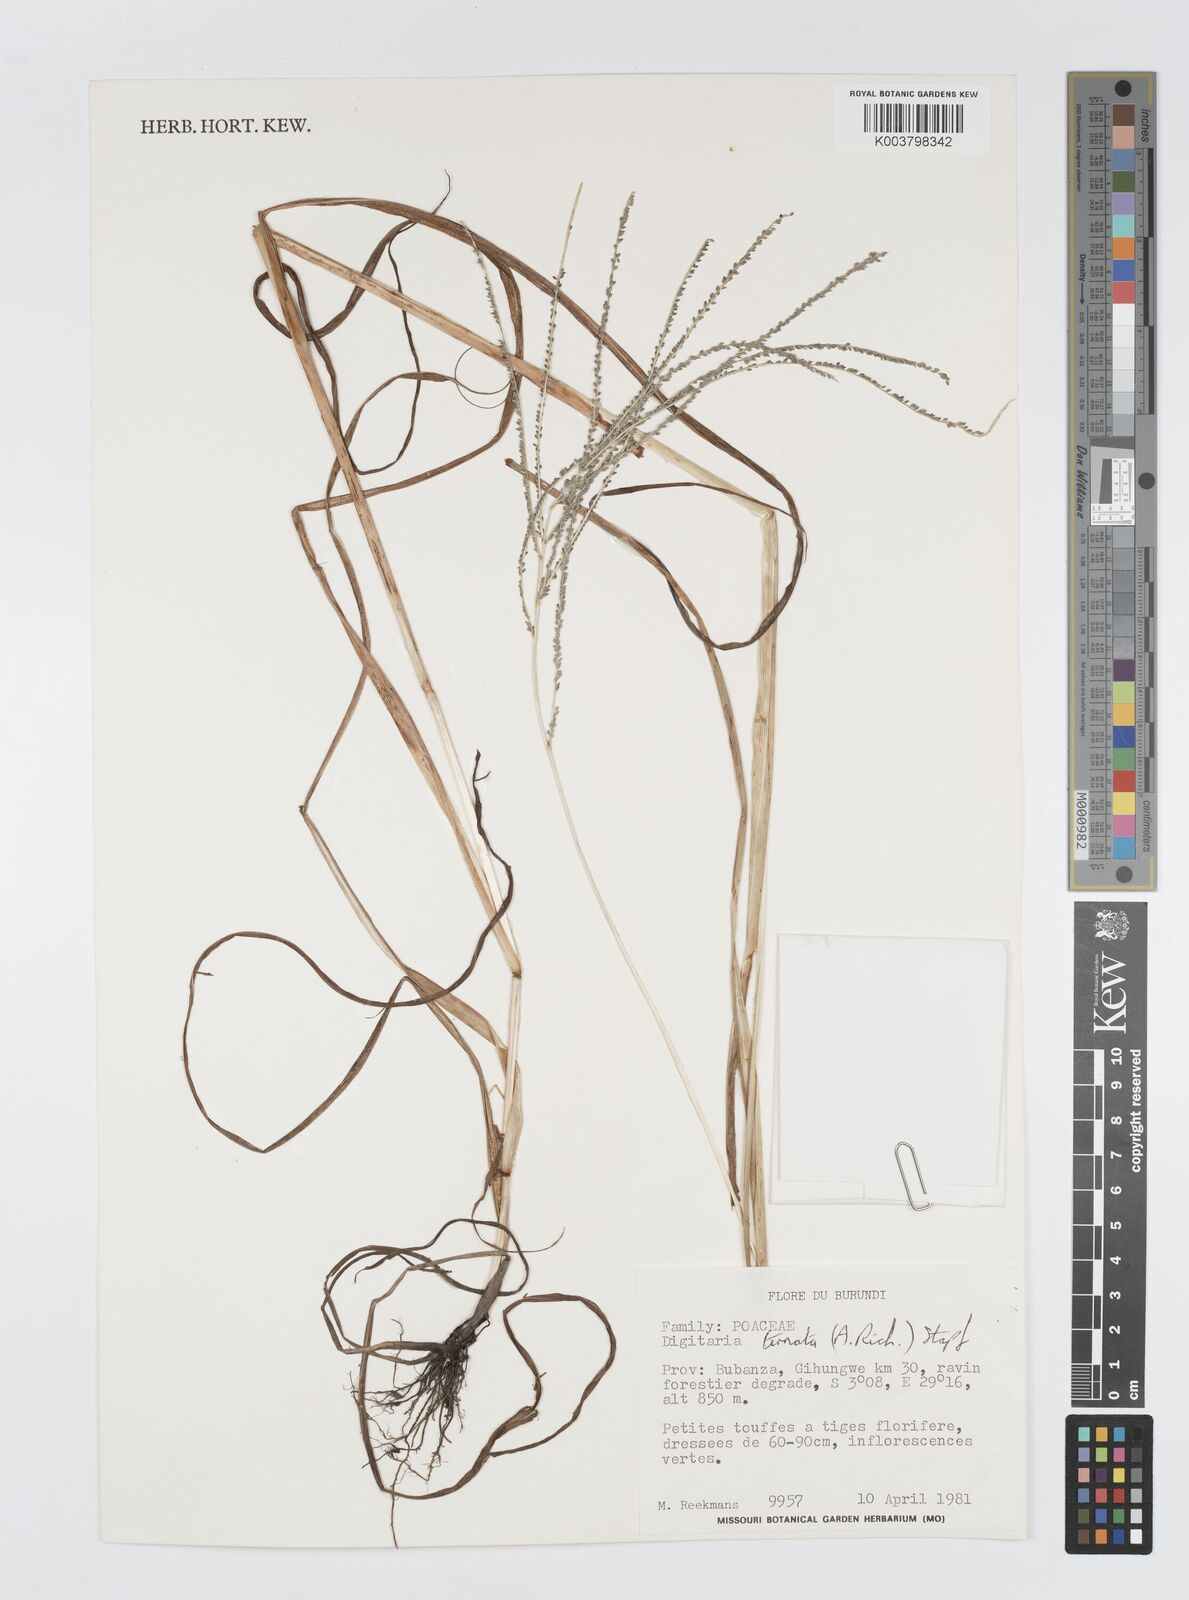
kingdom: Plantae
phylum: Tracheophyta
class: Liliopsida
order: Poales
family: Poaceae
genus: Digitaria
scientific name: Digitaria ternata
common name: Blackseed crabgrass
